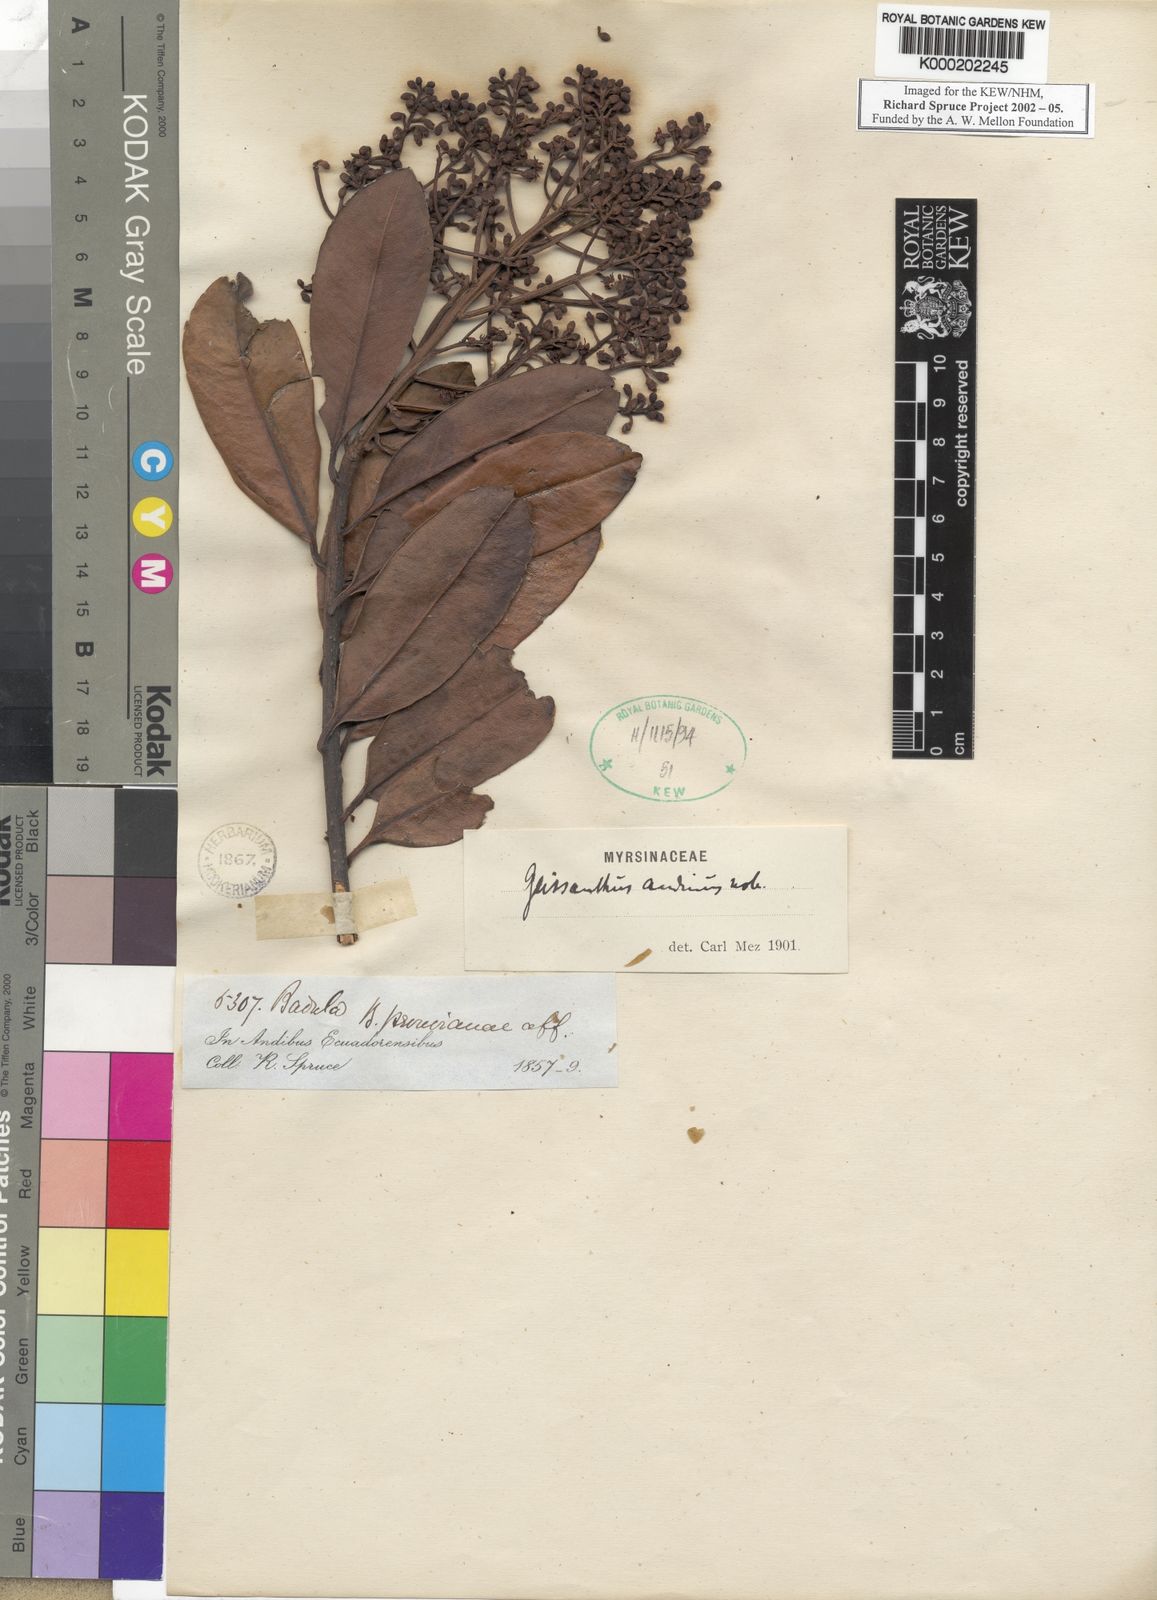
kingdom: Plantae
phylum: Tracheophyta
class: Magnoliopsida
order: Ericales
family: Primulaceae
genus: Geissanthus
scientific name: Geissanthus andinus
